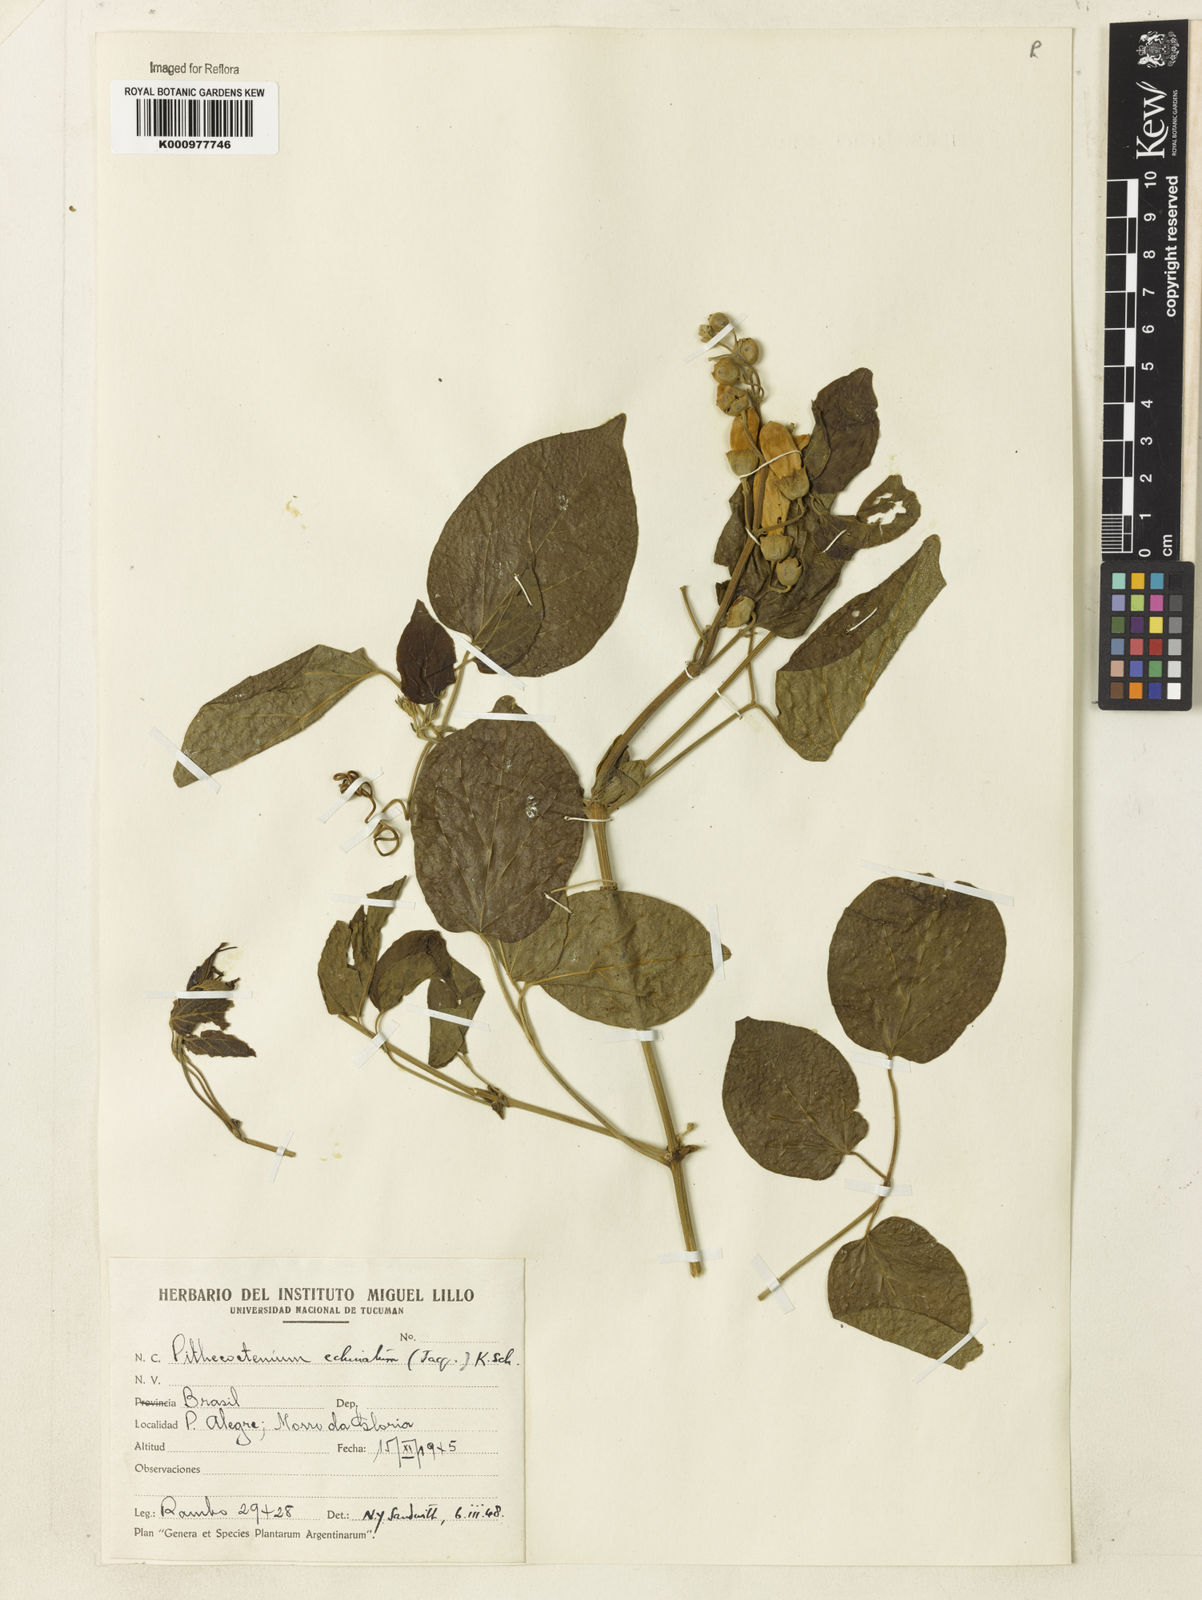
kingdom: Plantae
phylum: Tracheophyta
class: Magnoliopsida
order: Lamiales
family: Bignoniaceae
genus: Amphilophium
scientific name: Amphilophium crucigerum
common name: Monkey comb
